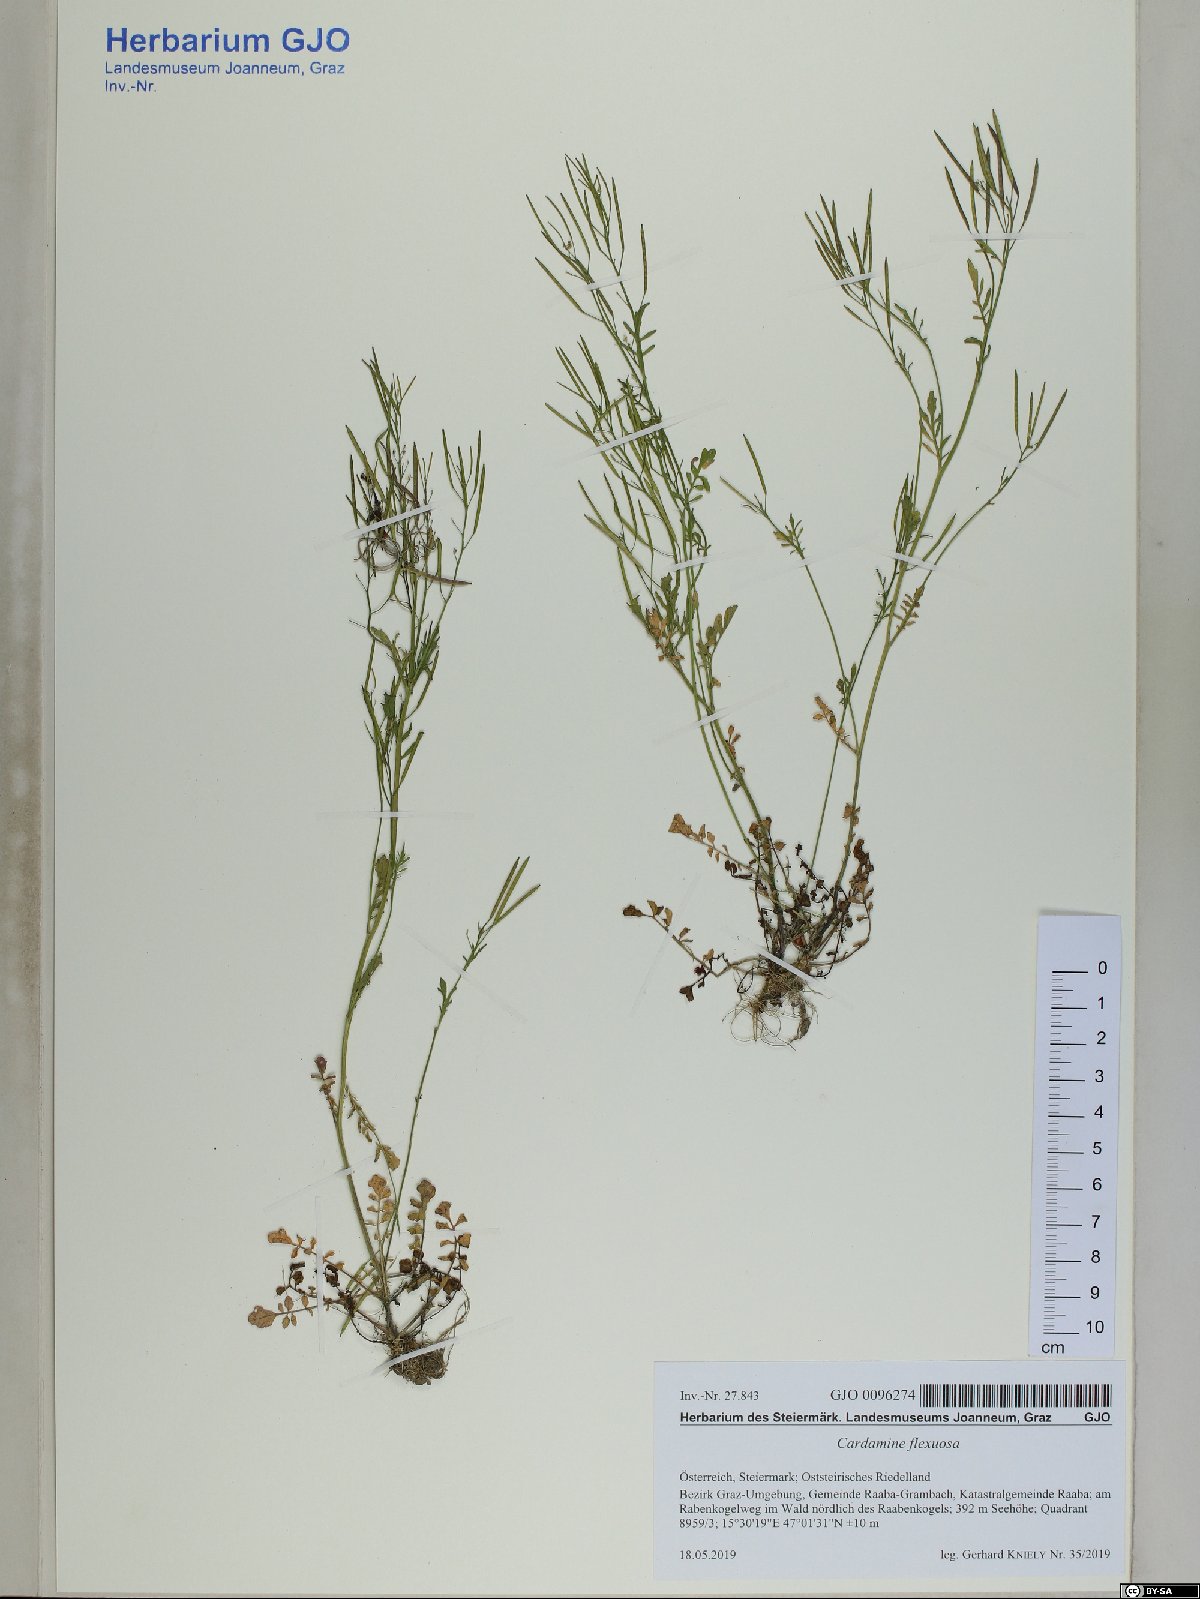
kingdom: Plantae
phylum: Tracheophyta
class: Magnoliopsida
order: Brassicales
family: Brassicaceae
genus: Cardamine
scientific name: Cardamine flexuosa
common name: Woodland bittercress
